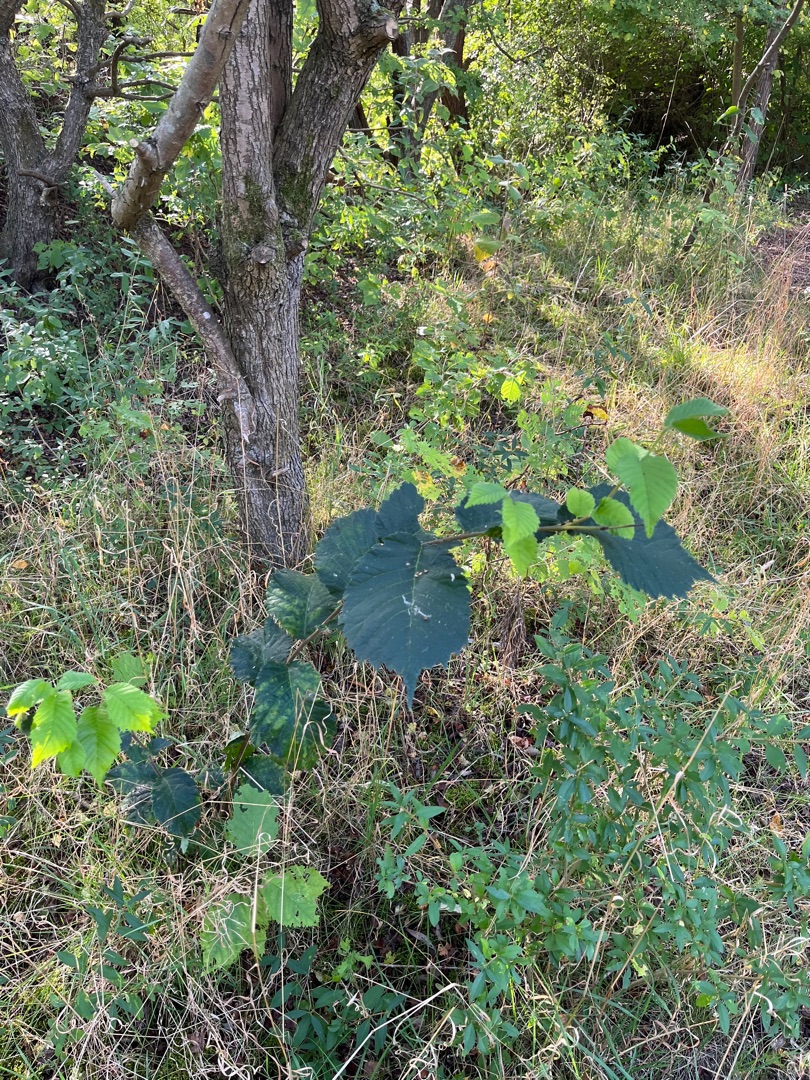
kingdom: Plantae
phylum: Tracheophyta
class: Magnoliopsida
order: Rosales
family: Ulmaceae
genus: Ulmus
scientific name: Ulmus glabra
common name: Skov-elm/storbladet elm
